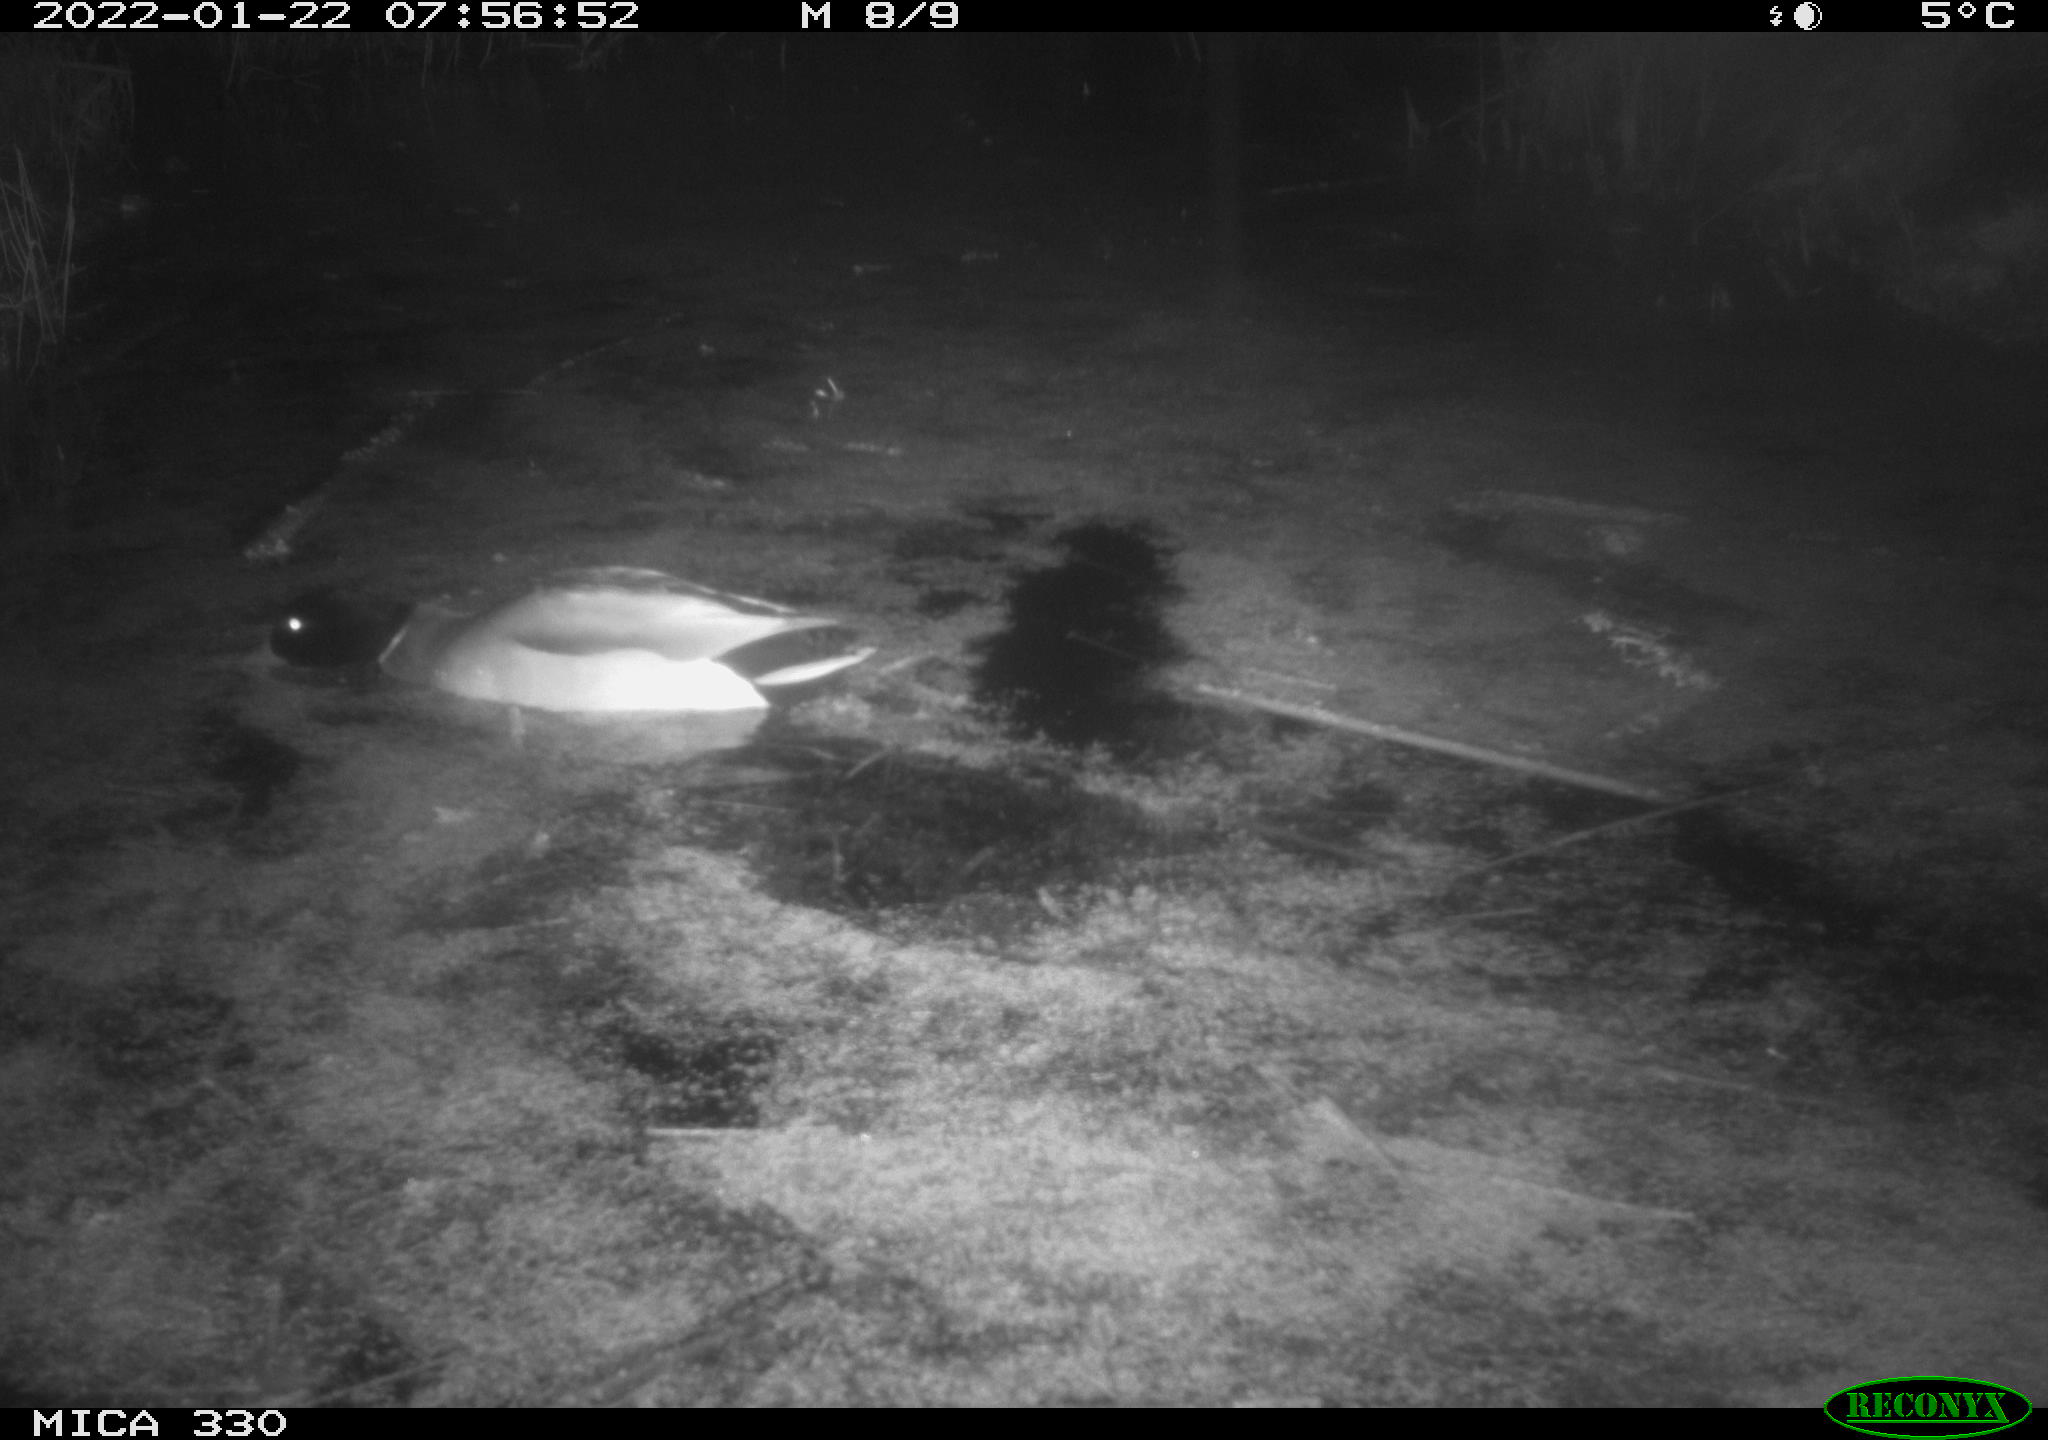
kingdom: Animalia
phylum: Chordata
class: Aves
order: Anseriformes
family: Anatidae
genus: Anas
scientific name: Anas platyrhynchos
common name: Mallard
